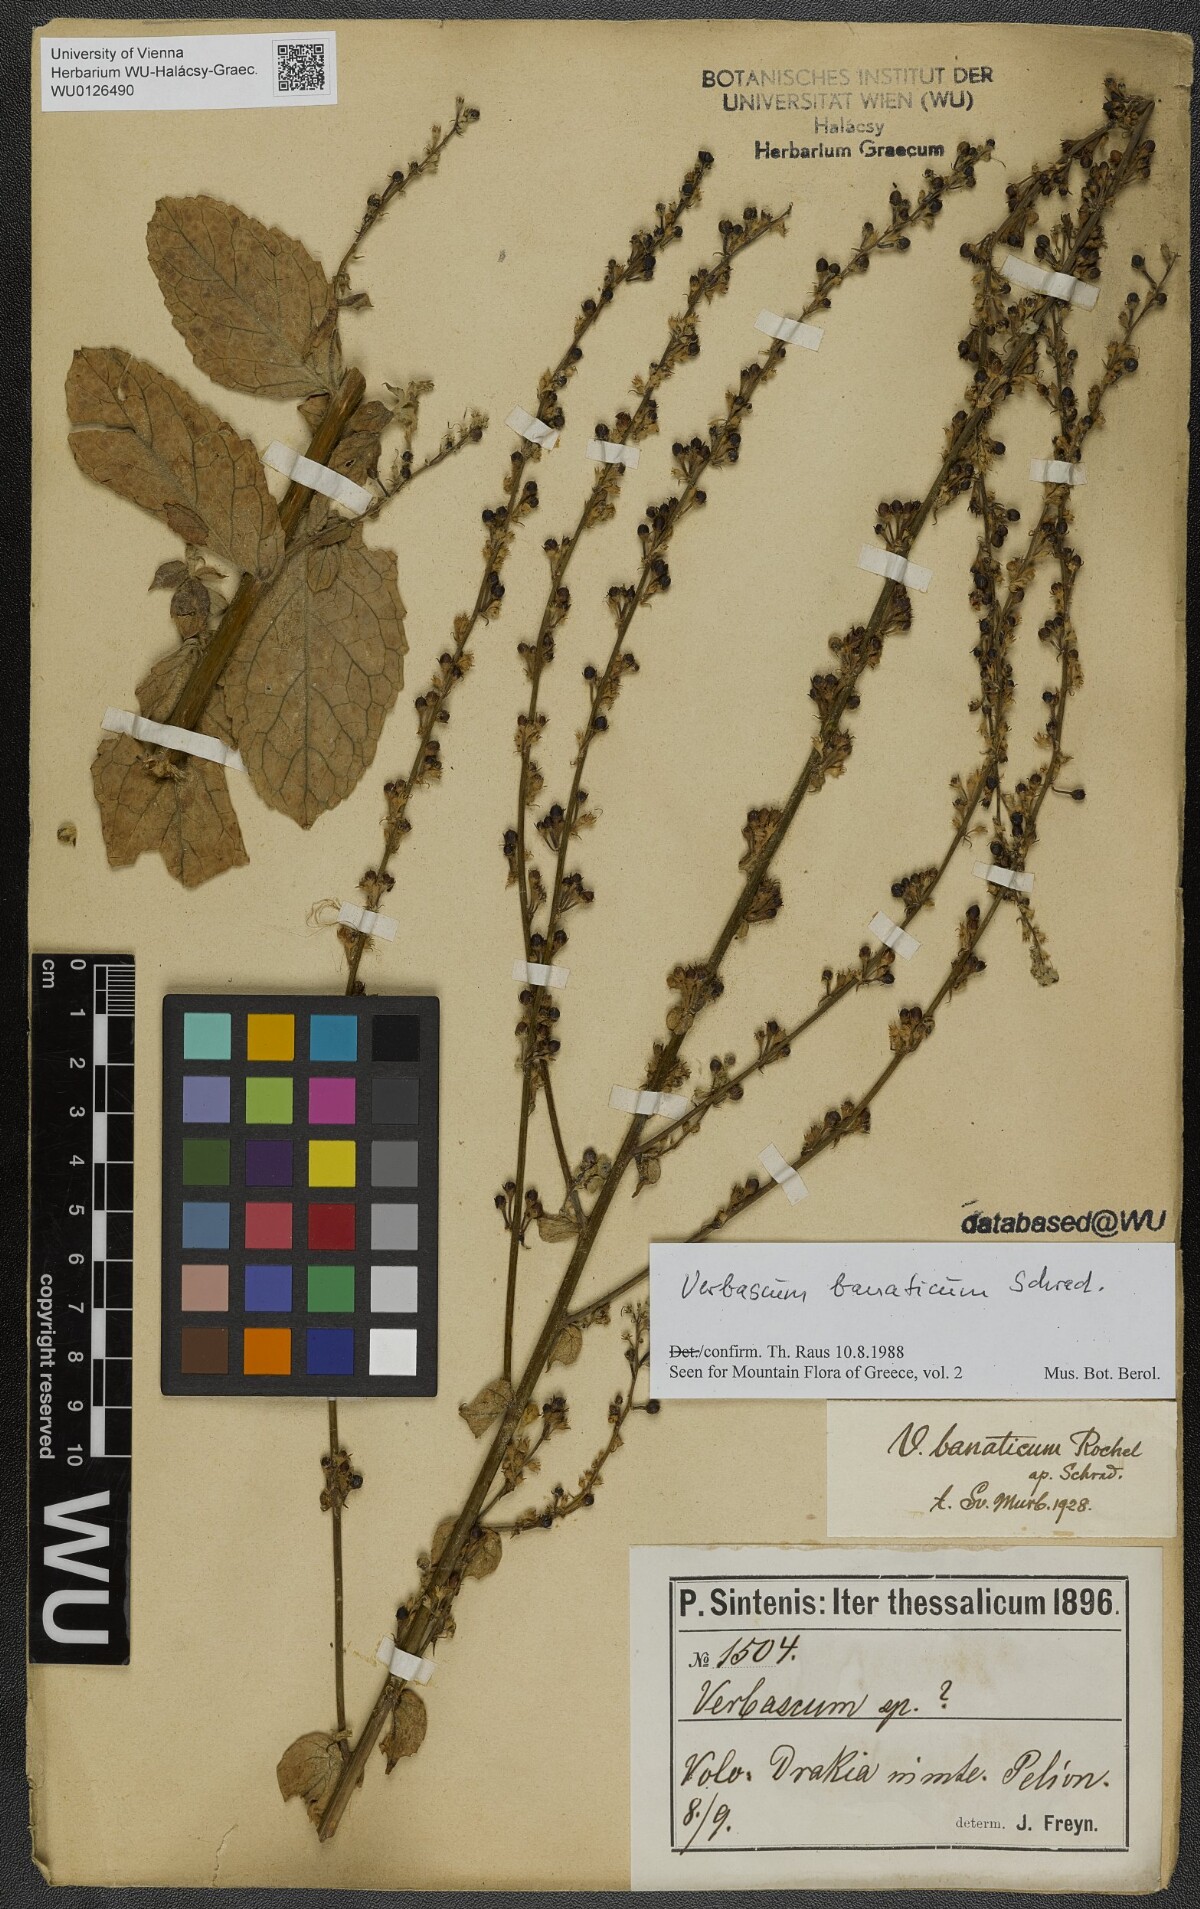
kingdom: Plantae
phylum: Tracheophyta
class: Magnoliopsida
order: Lamiales
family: Scrophulariaceae
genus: Verbascum
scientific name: Verbascum banaticum
